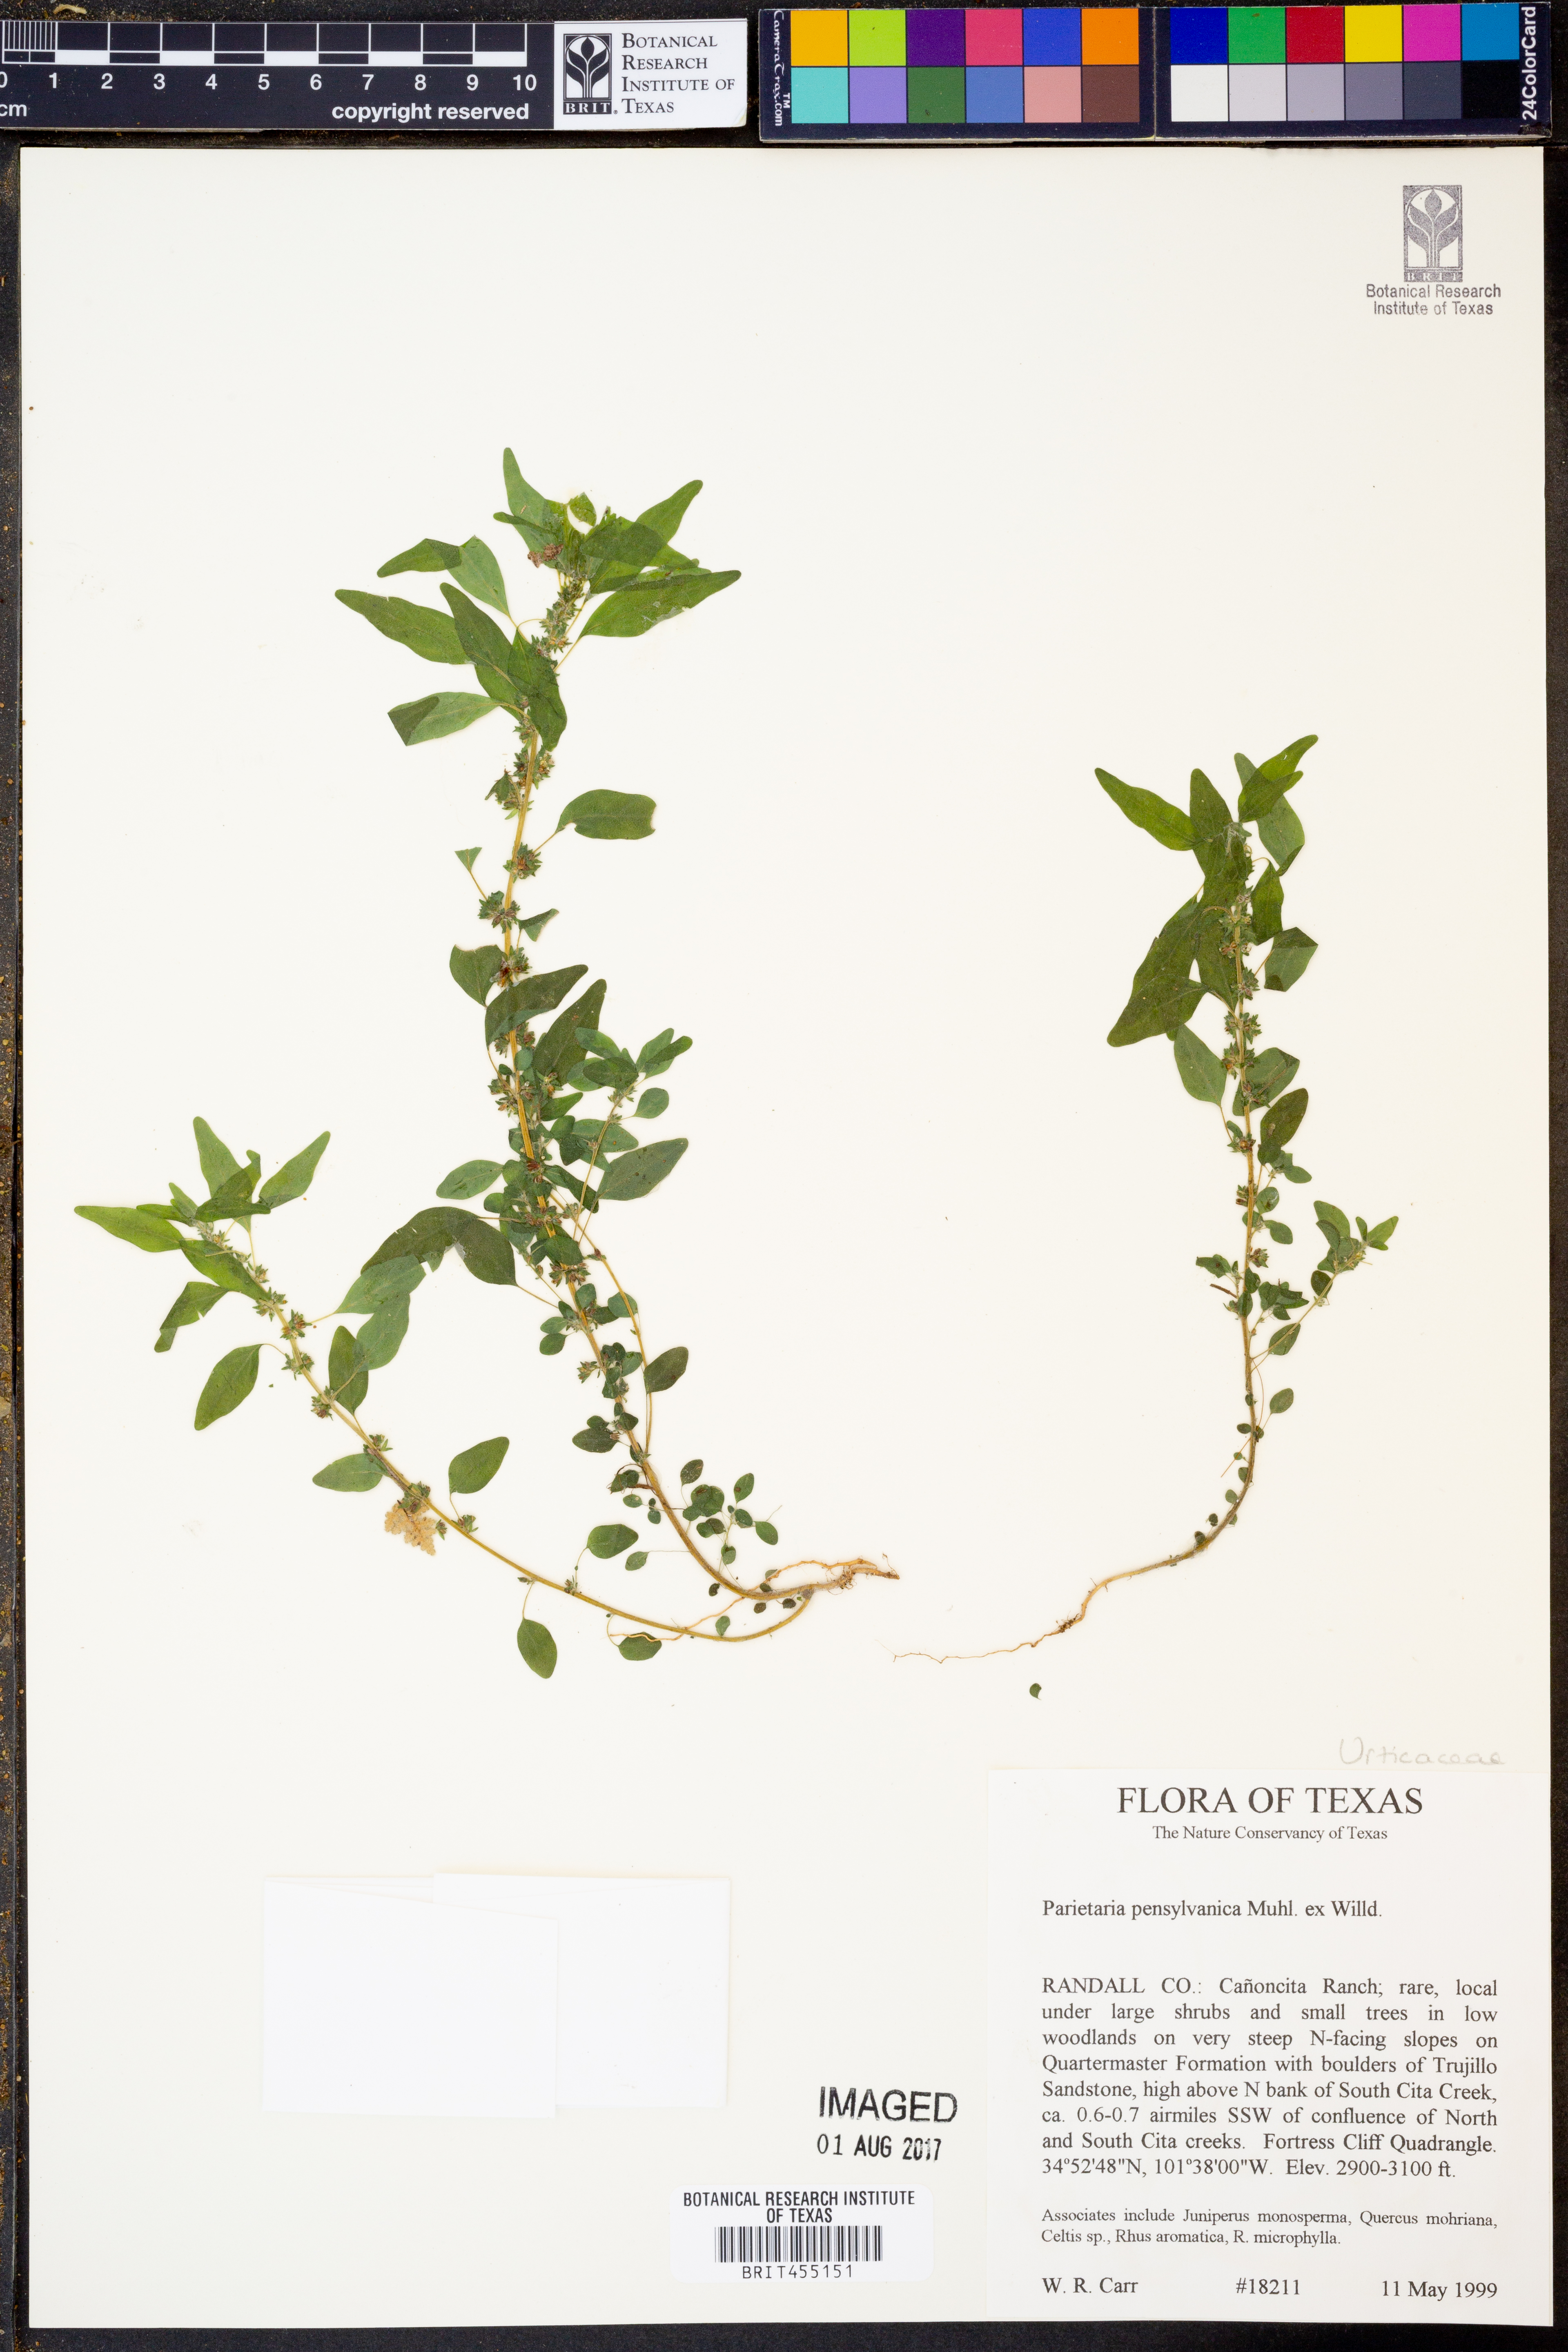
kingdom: Plantae
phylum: Tracheophyta
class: Magnoliopsida
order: Rosales
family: Urticaceae
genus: Parietaria
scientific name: Parietaria pensylvanica
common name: Pennsylvania pellitory
